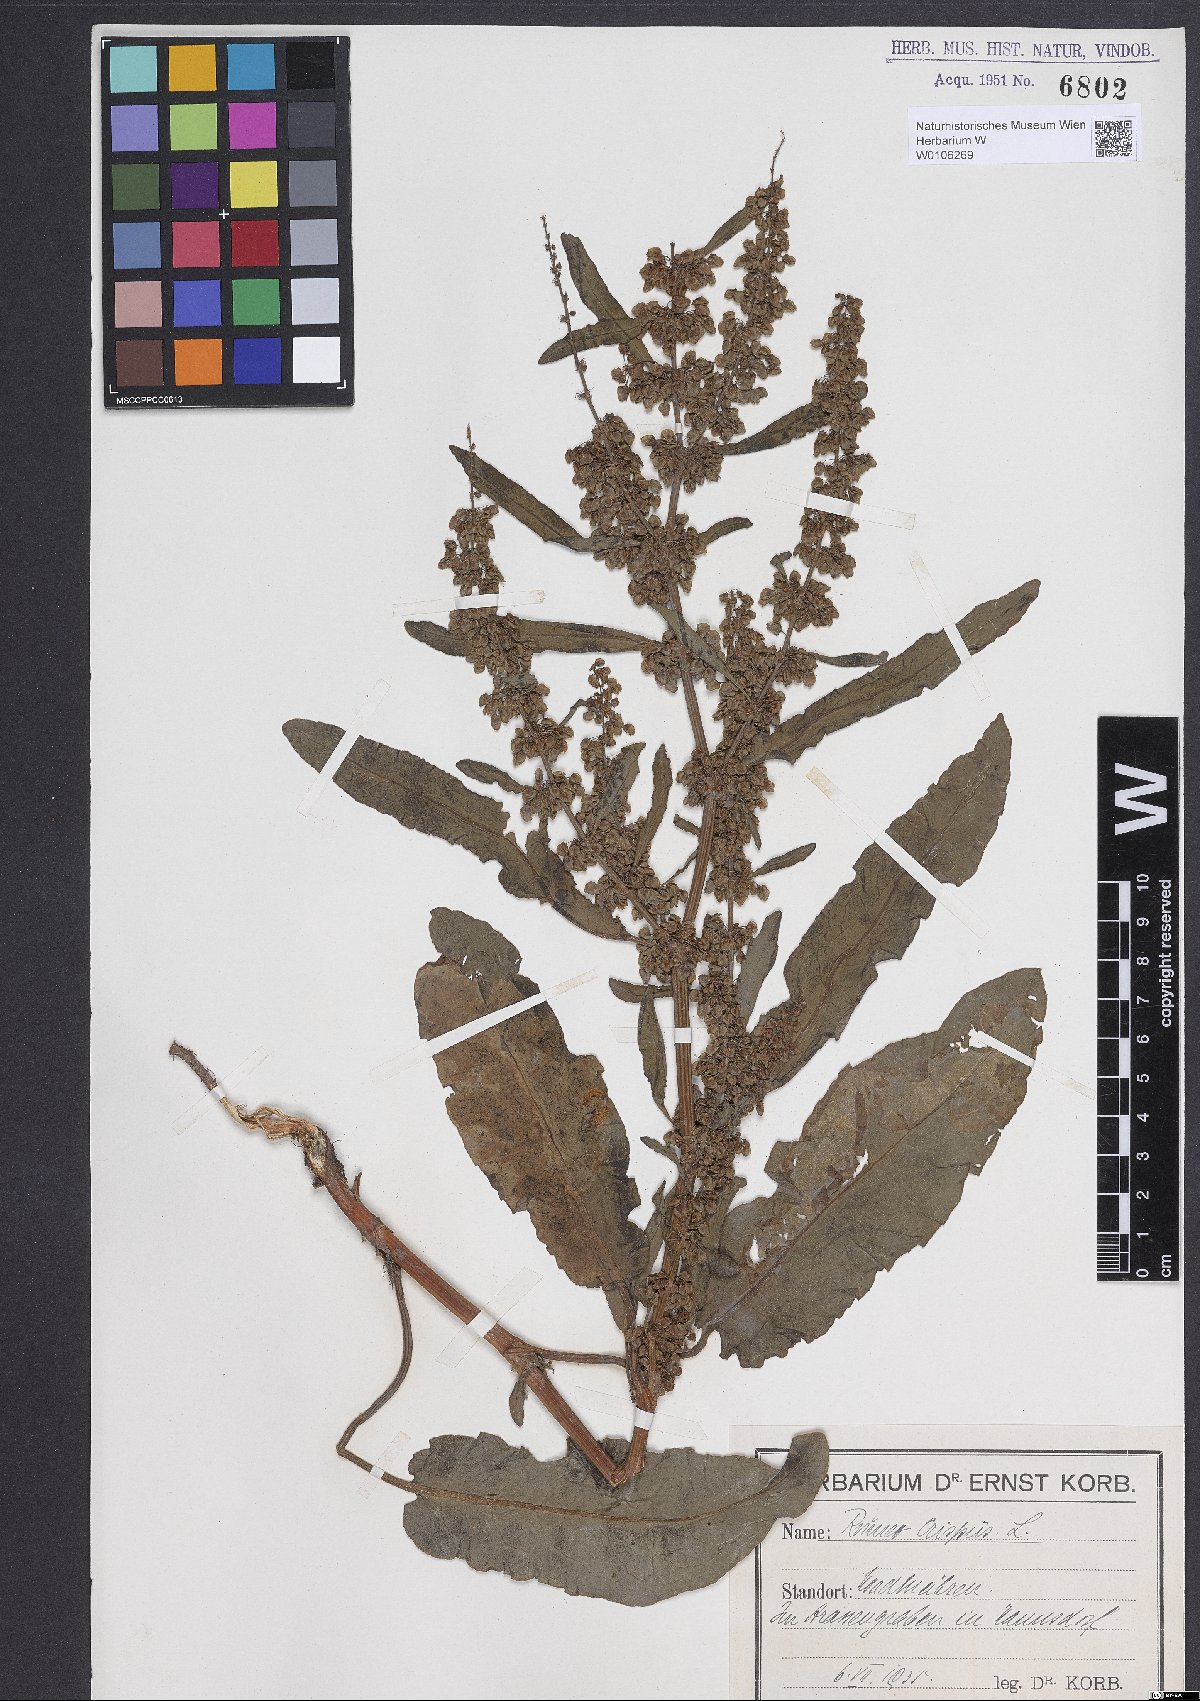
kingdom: Plantae
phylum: Tracheophyta
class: Magnoliopsida
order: Caryophyllales
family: Polygonaceae
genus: Rumex
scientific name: Rumex crispus
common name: Curled dock
